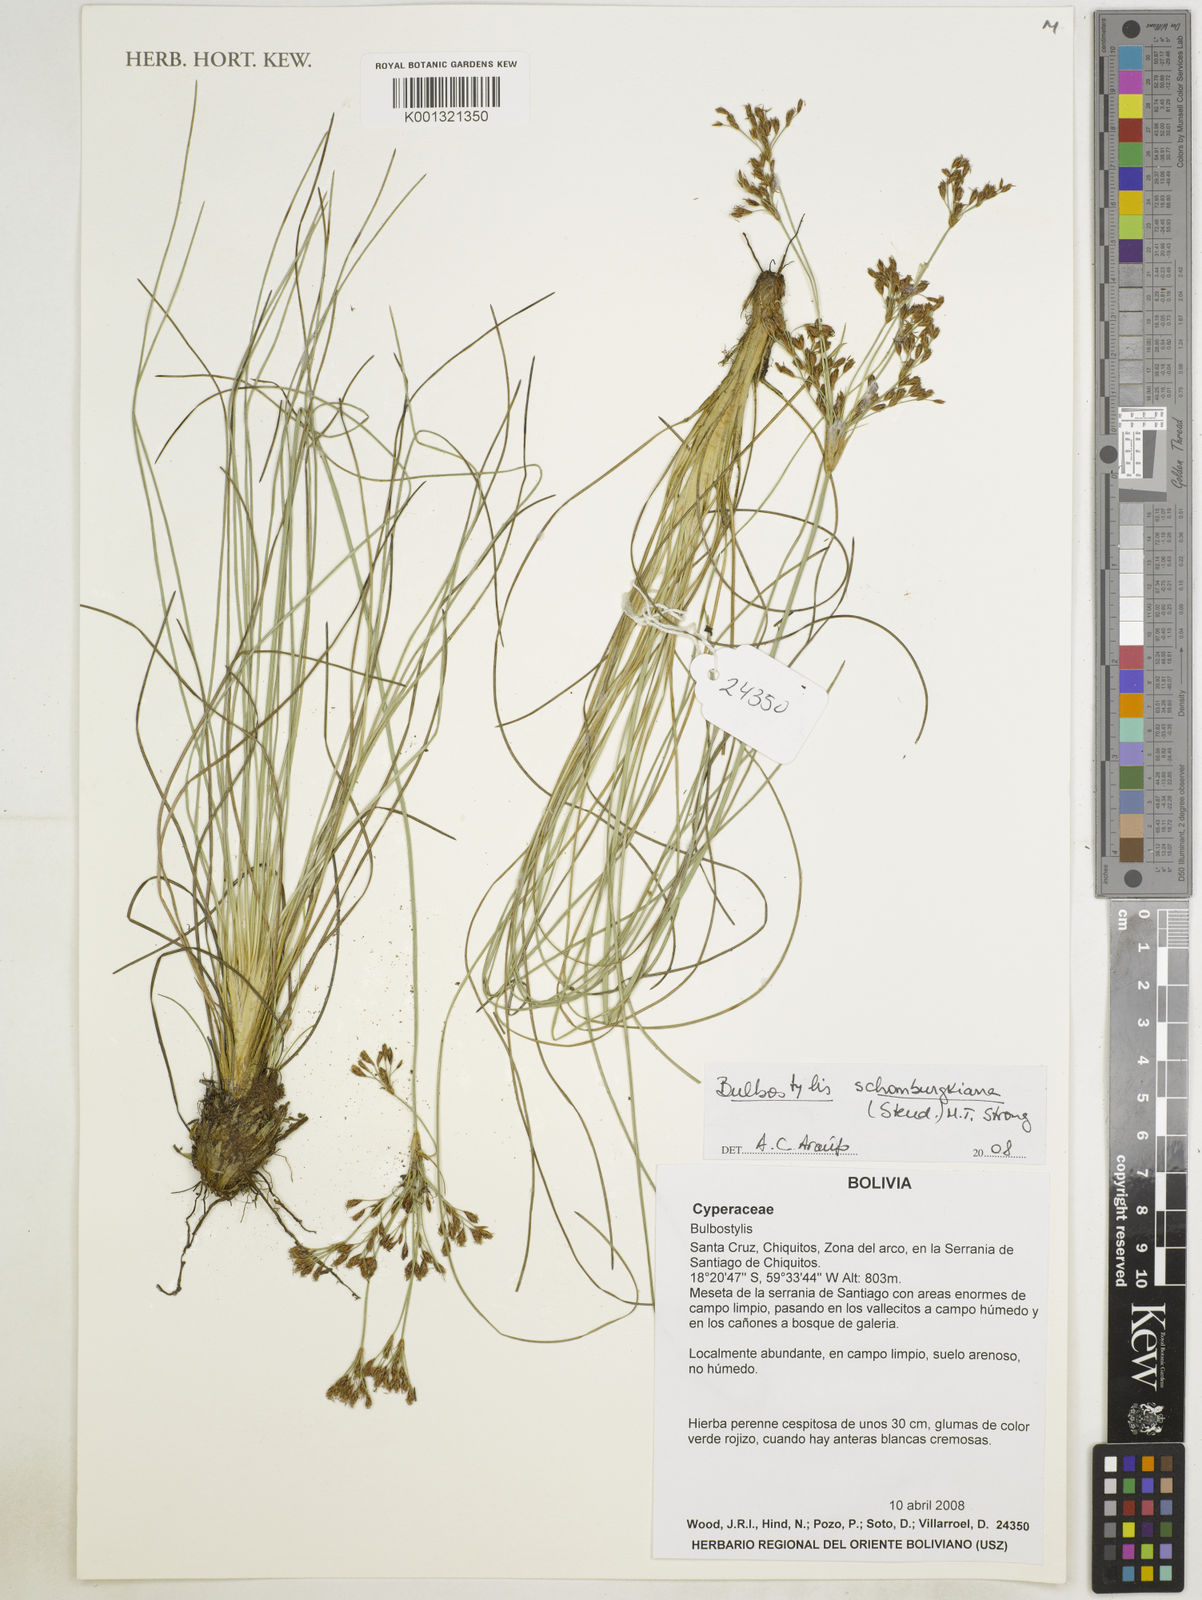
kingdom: Plantae
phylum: Tracheophyta
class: Liliopsida
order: Poales
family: Cyperaceae
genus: Bulbostylis
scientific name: Bulbostylis schomburgkiana
